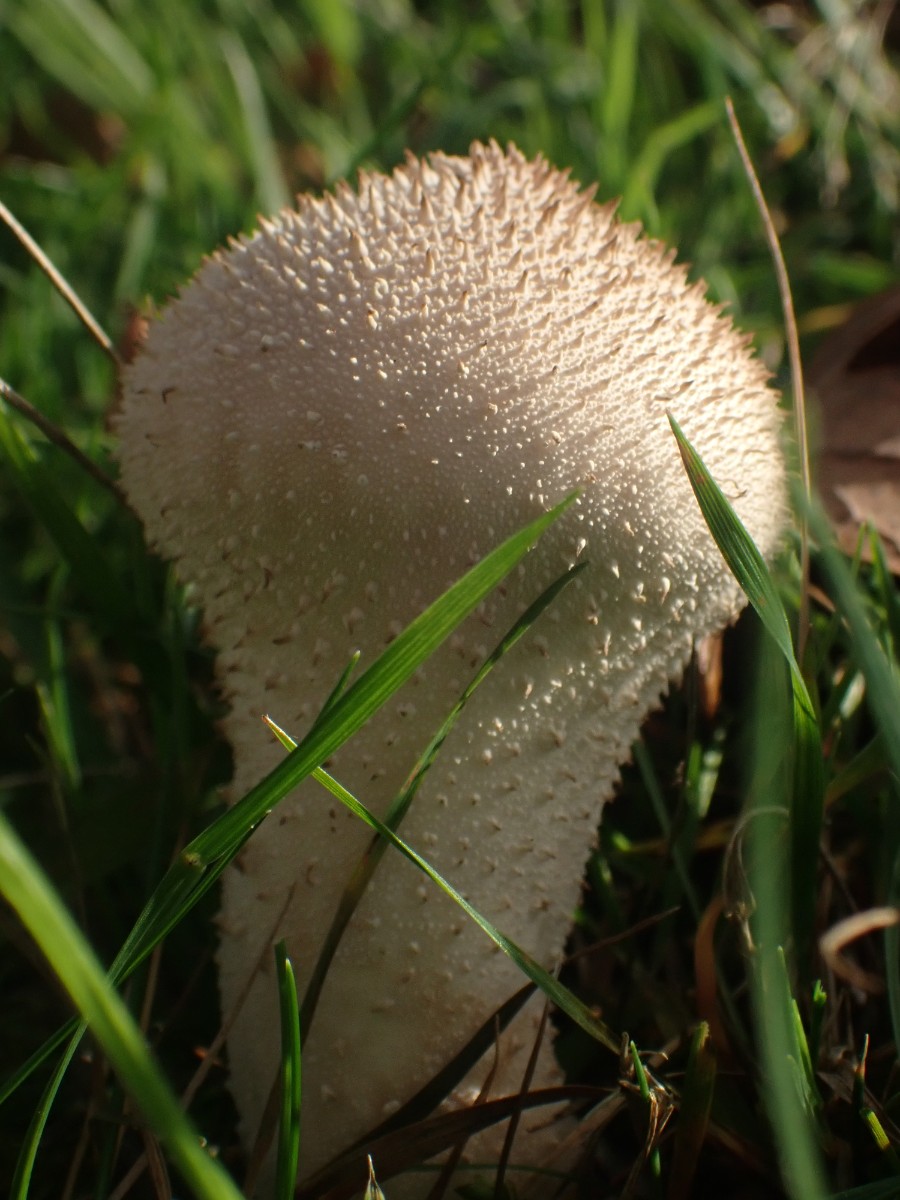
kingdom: Fungi
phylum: Basidiomycota
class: Agaricomycetes
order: Agaricales
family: Lycoperdaceae
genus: Lycoperdon
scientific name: Lycoperdon perlatum
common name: krystal-støvbold
